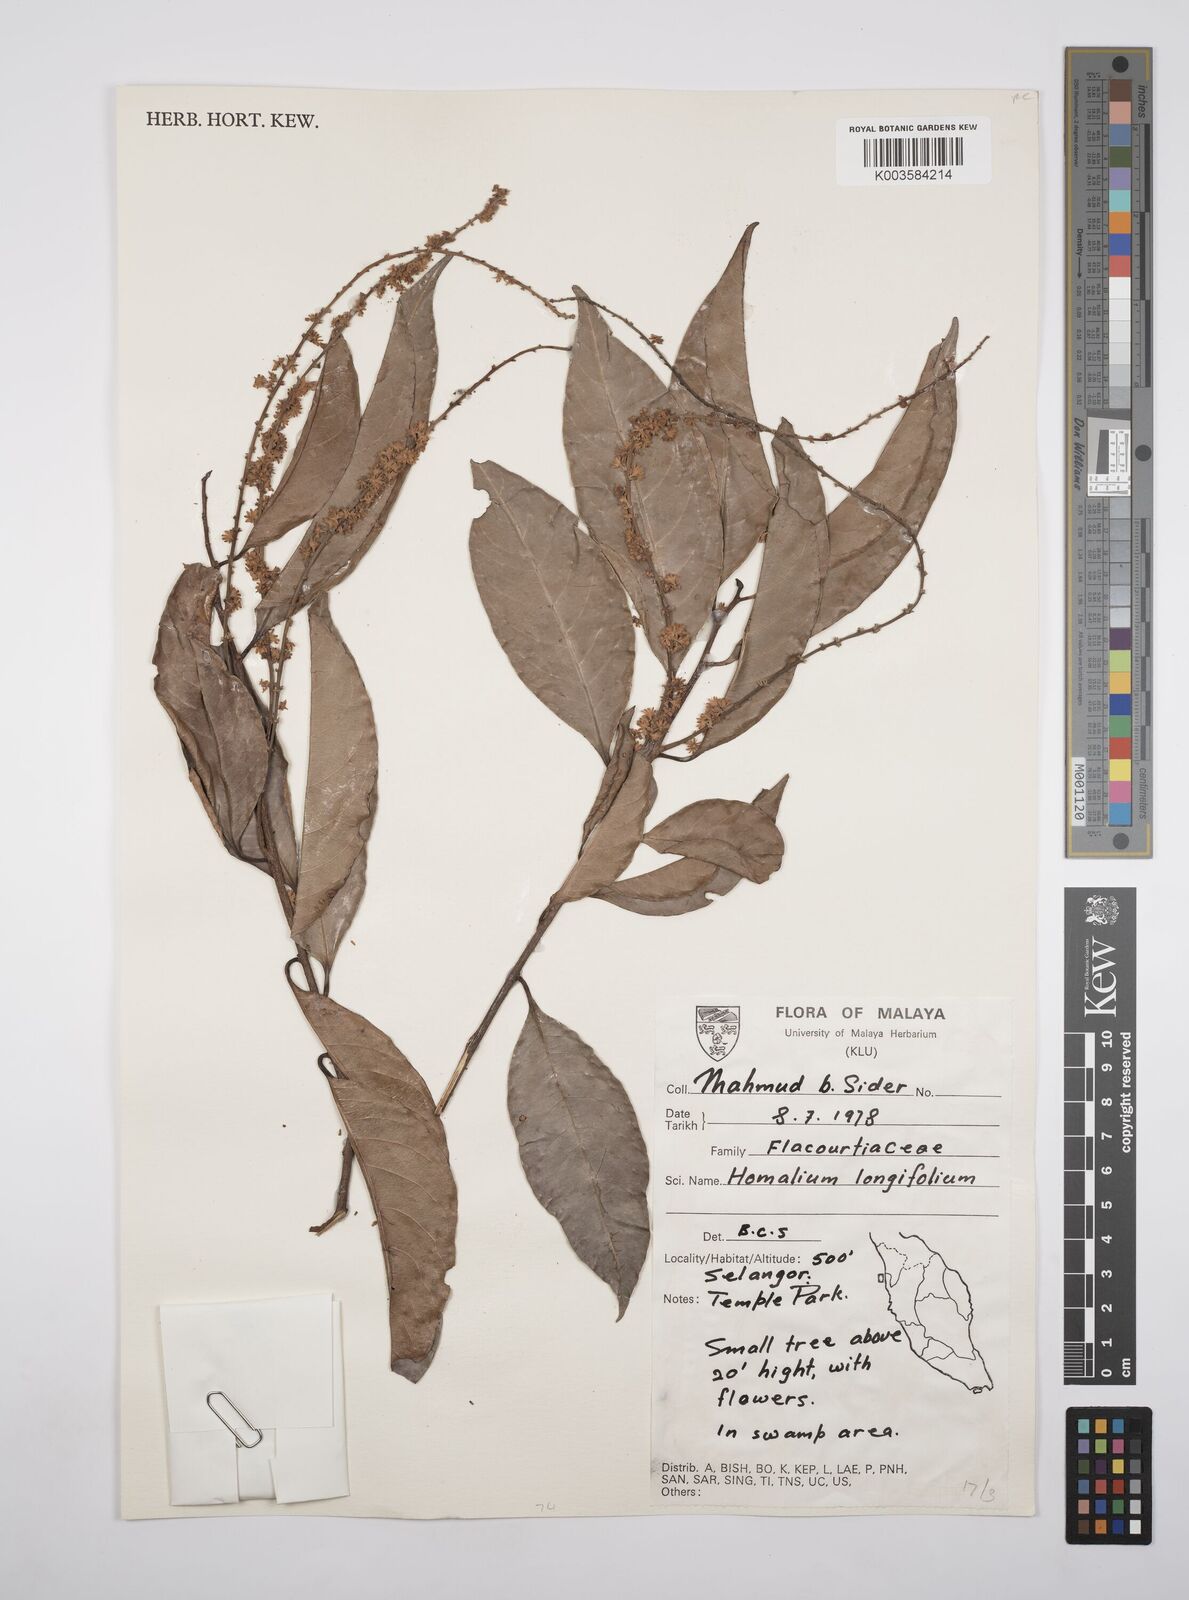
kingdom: Plantae
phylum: Tracheophyta
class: Magnoliopsida
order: Malpighiales
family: Salicaceae
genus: Homalium
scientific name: Homalium longifolium
